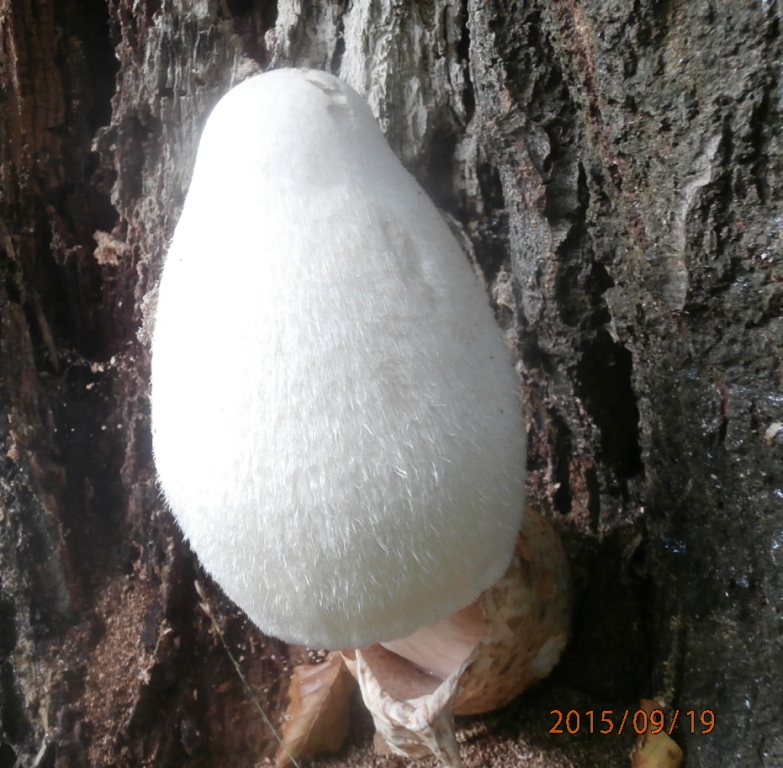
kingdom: Fungi
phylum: Basidiomycota
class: Agaricomycetes
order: Agaricales
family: Pluteaceae
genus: Volvariella
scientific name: Volvariella bombycina
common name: silkehåret posesvamp
